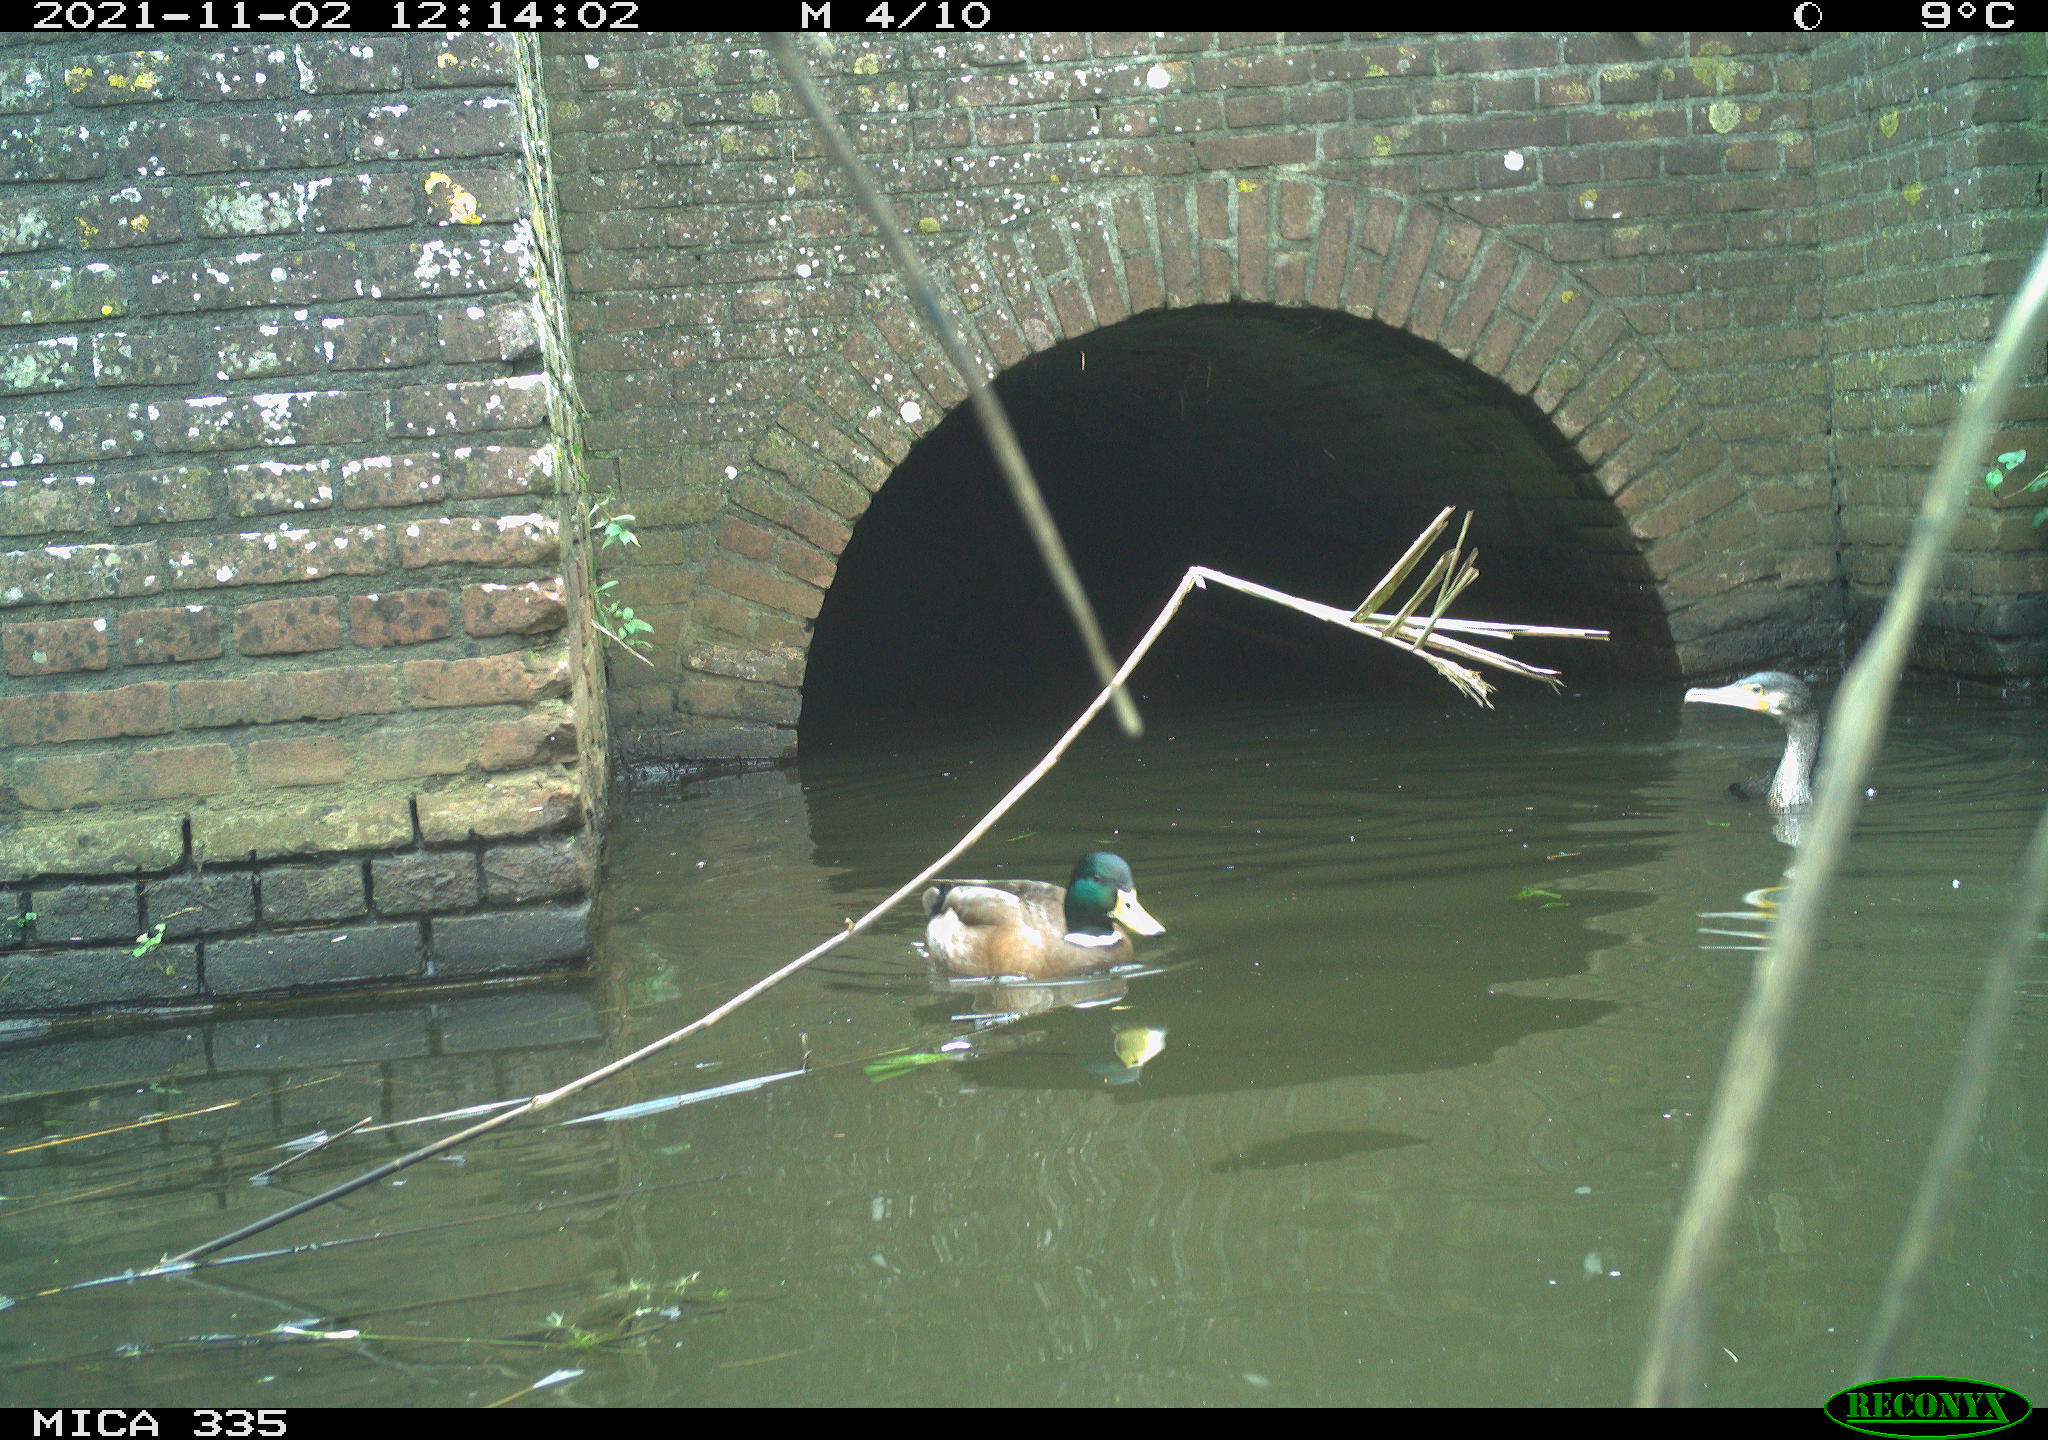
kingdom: Animalia
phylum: Chordata
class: Aves
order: Suliformes
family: Phalacrocoracidae
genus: Phalacrocorax
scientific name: Phalacrocorax carbo
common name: Great cormorant
